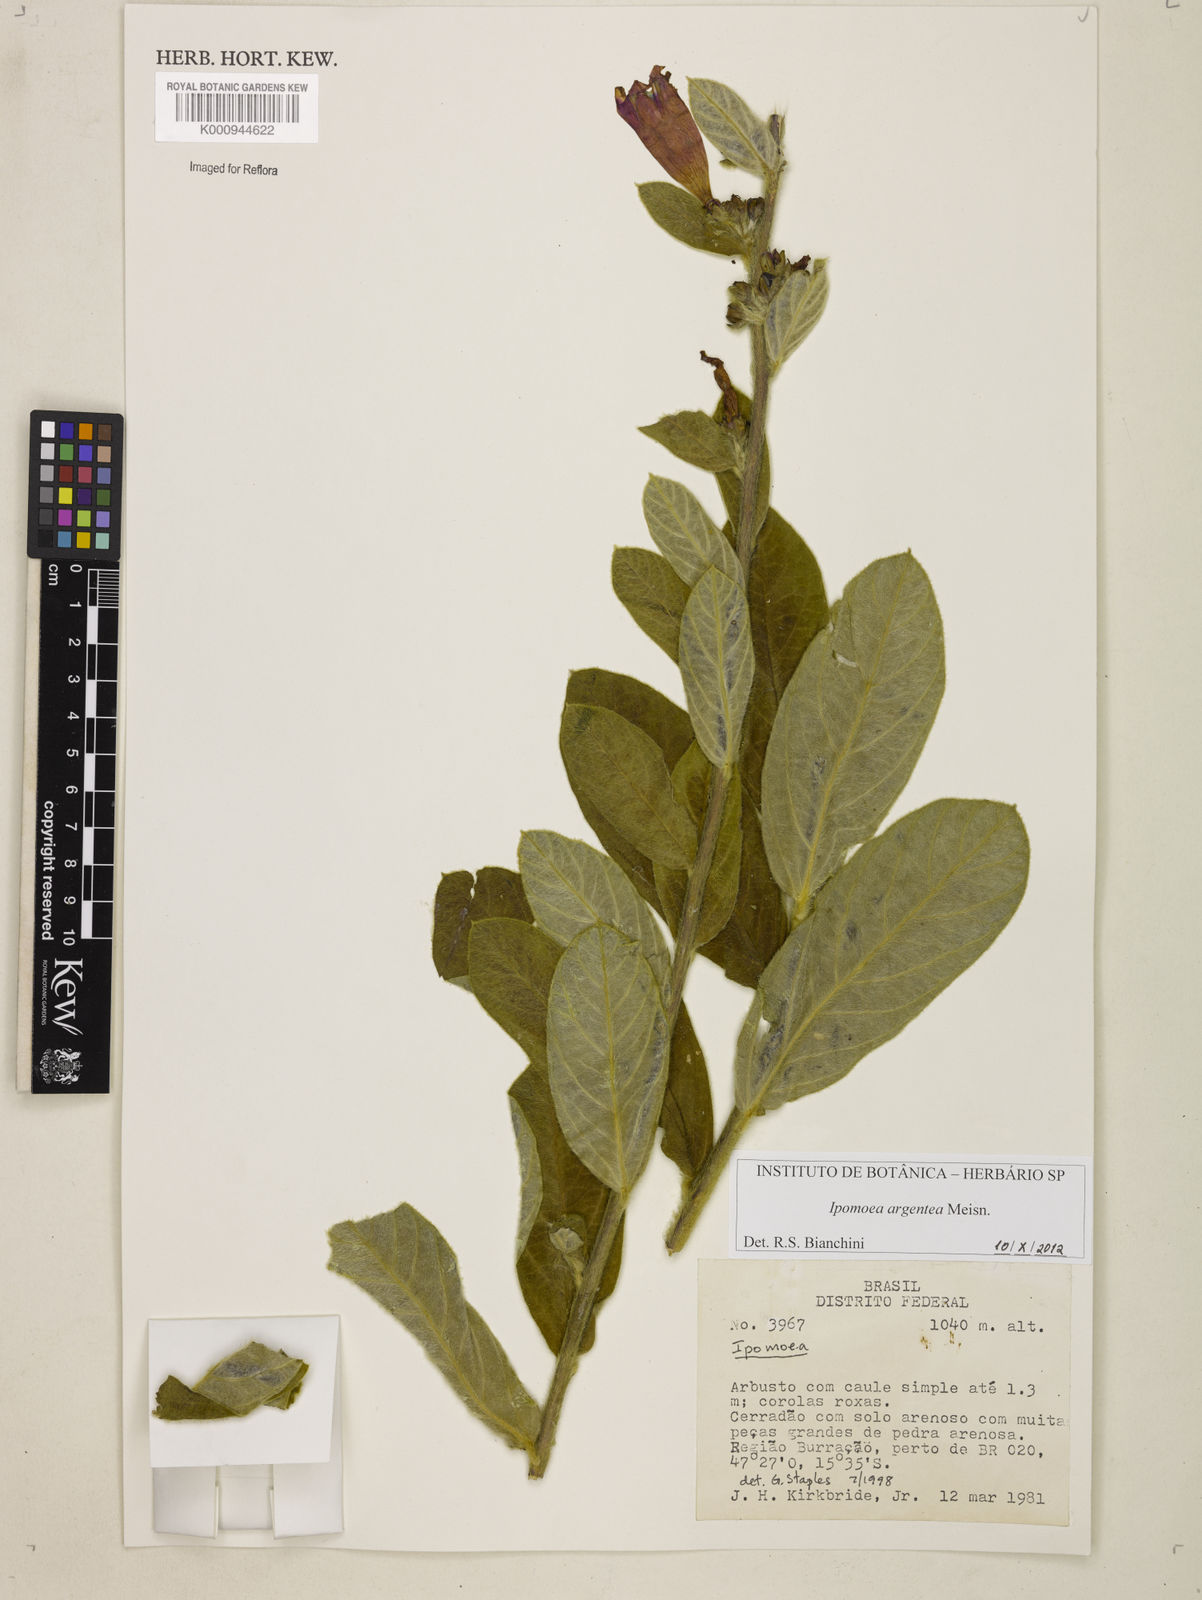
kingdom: Plantae
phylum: Tracheophyta
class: Magnoliopsida
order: Solanales
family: Convolvulaceae
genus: Ipomoea
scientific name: Ipomoea argentea
